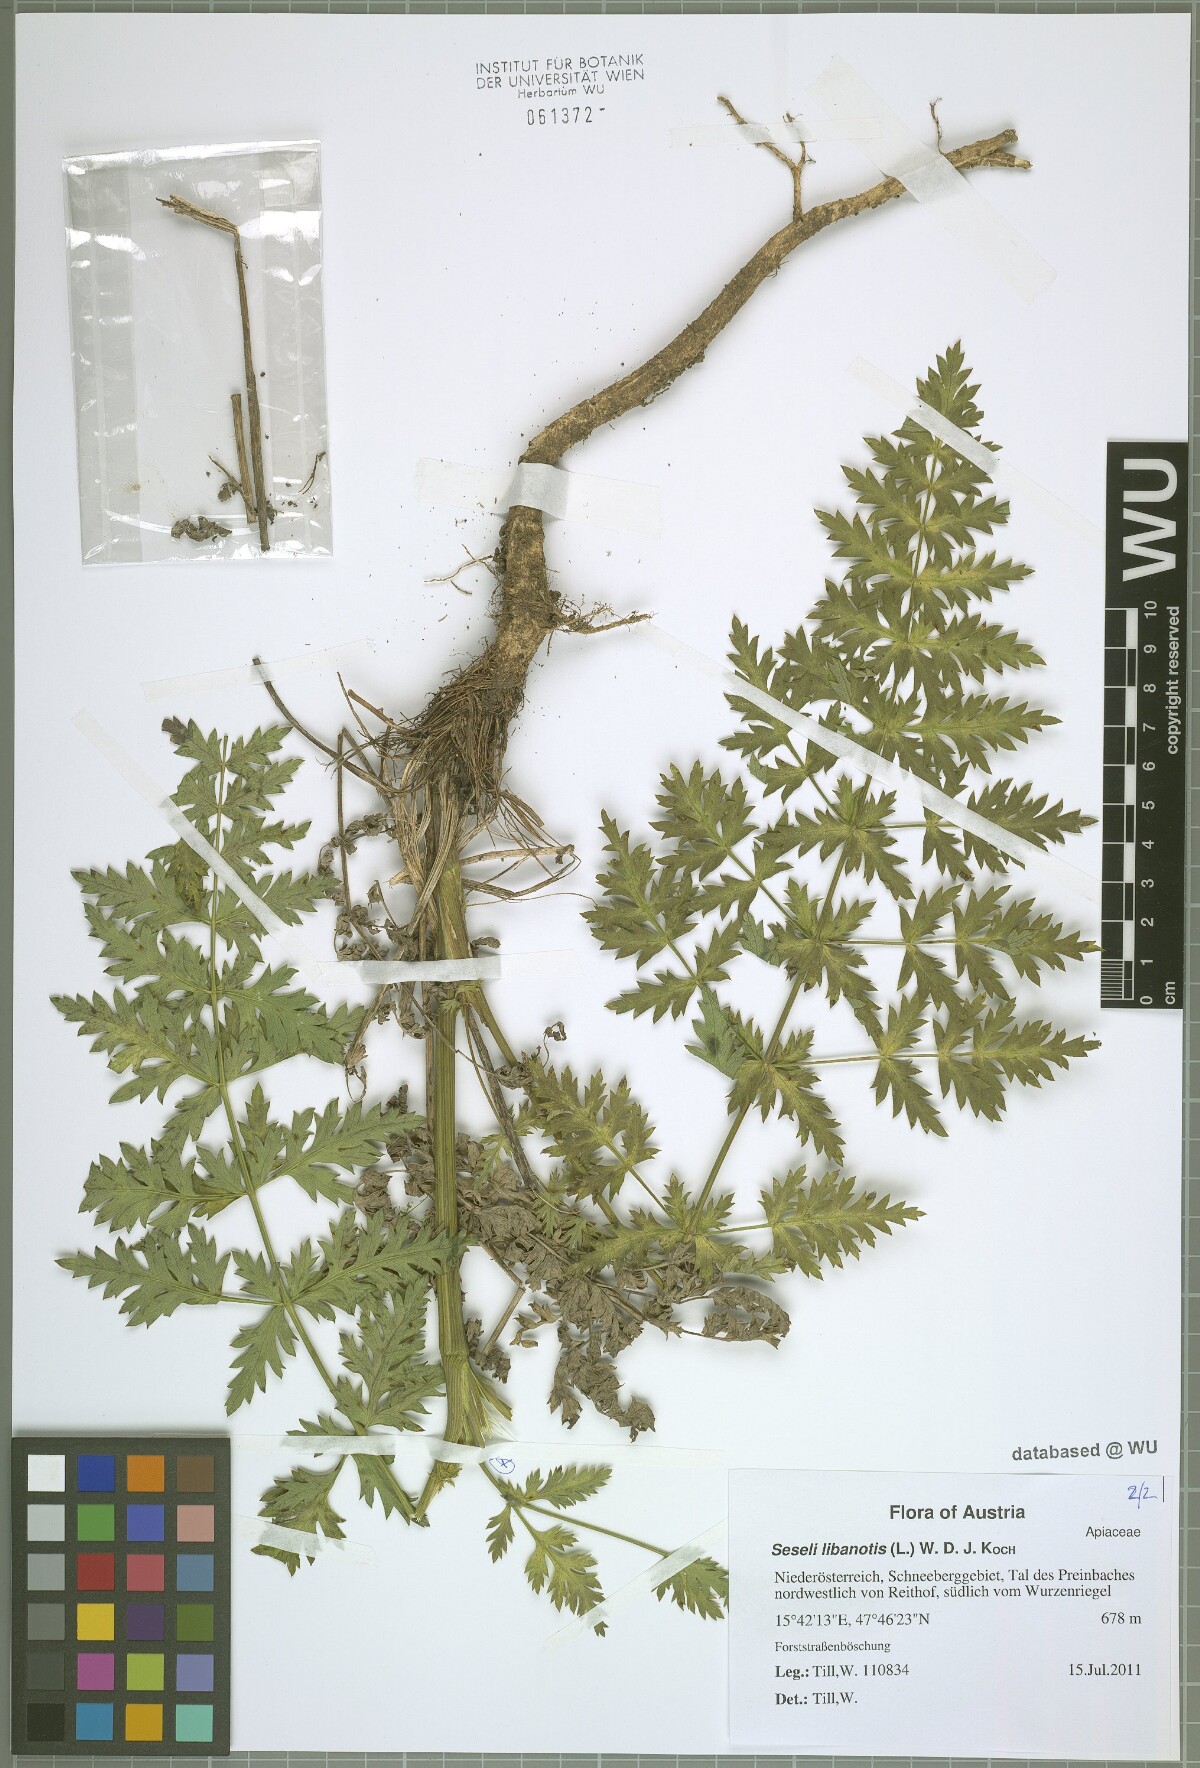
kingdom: Plantae
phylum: Tracheophyta
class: Magnoliopsida
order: Apiales
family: Apiaceae
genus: Seseli
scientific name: Seseli libanotis
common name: Mooncarrot
